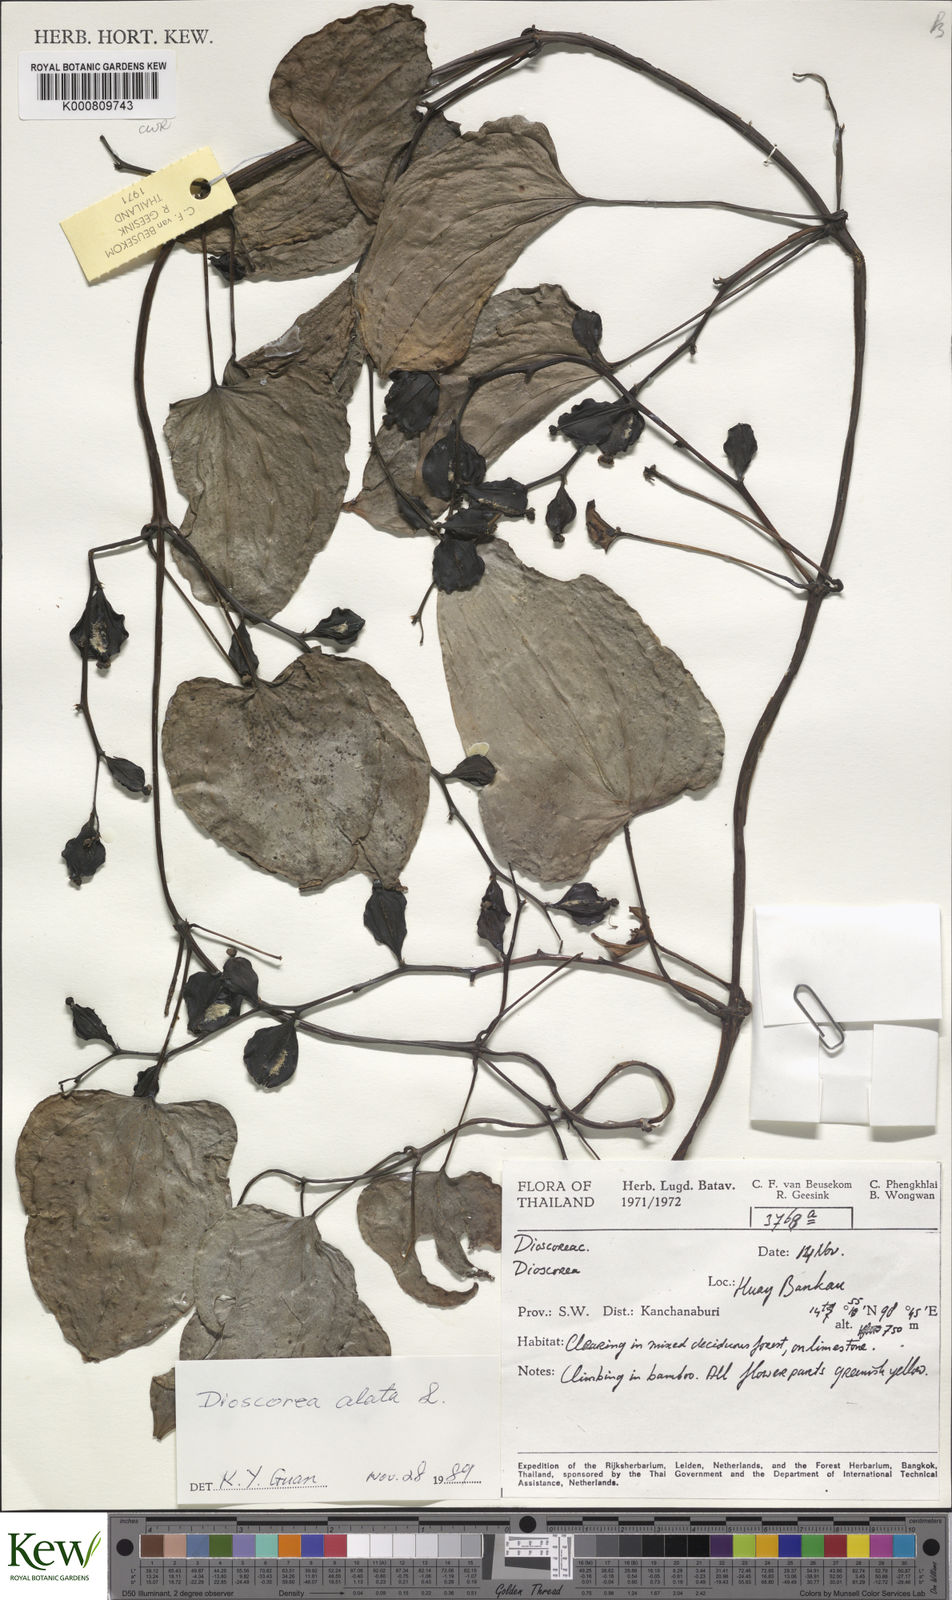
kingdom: Plantae
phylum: Tracheophyta
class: Liliopsida
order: Dioscoreales
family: Dioscoreaceae
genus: Dioscorea
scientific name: Dioscorea alata
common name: Water yam
